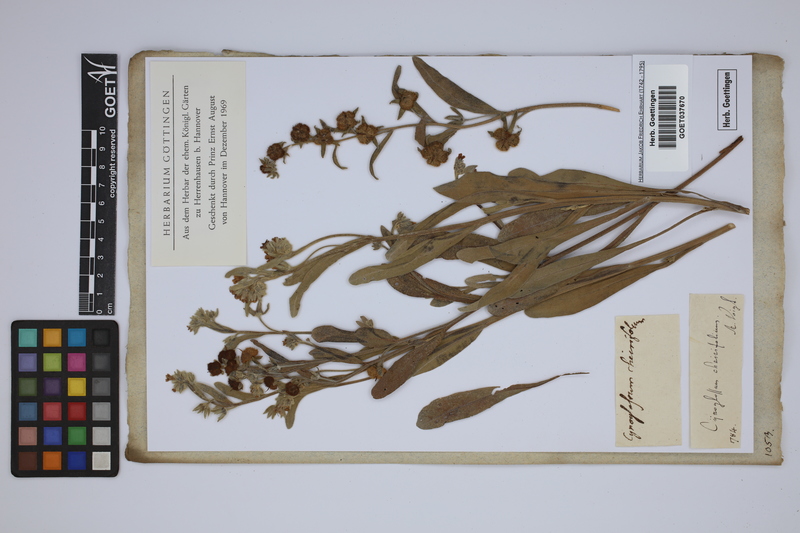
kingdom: Plantae
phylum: Tracheophyta
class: Magnoliopsida
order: Boraginales
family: Boraginaceae
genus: Pardoglossum
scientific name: Pardoglossum cheirifolium
